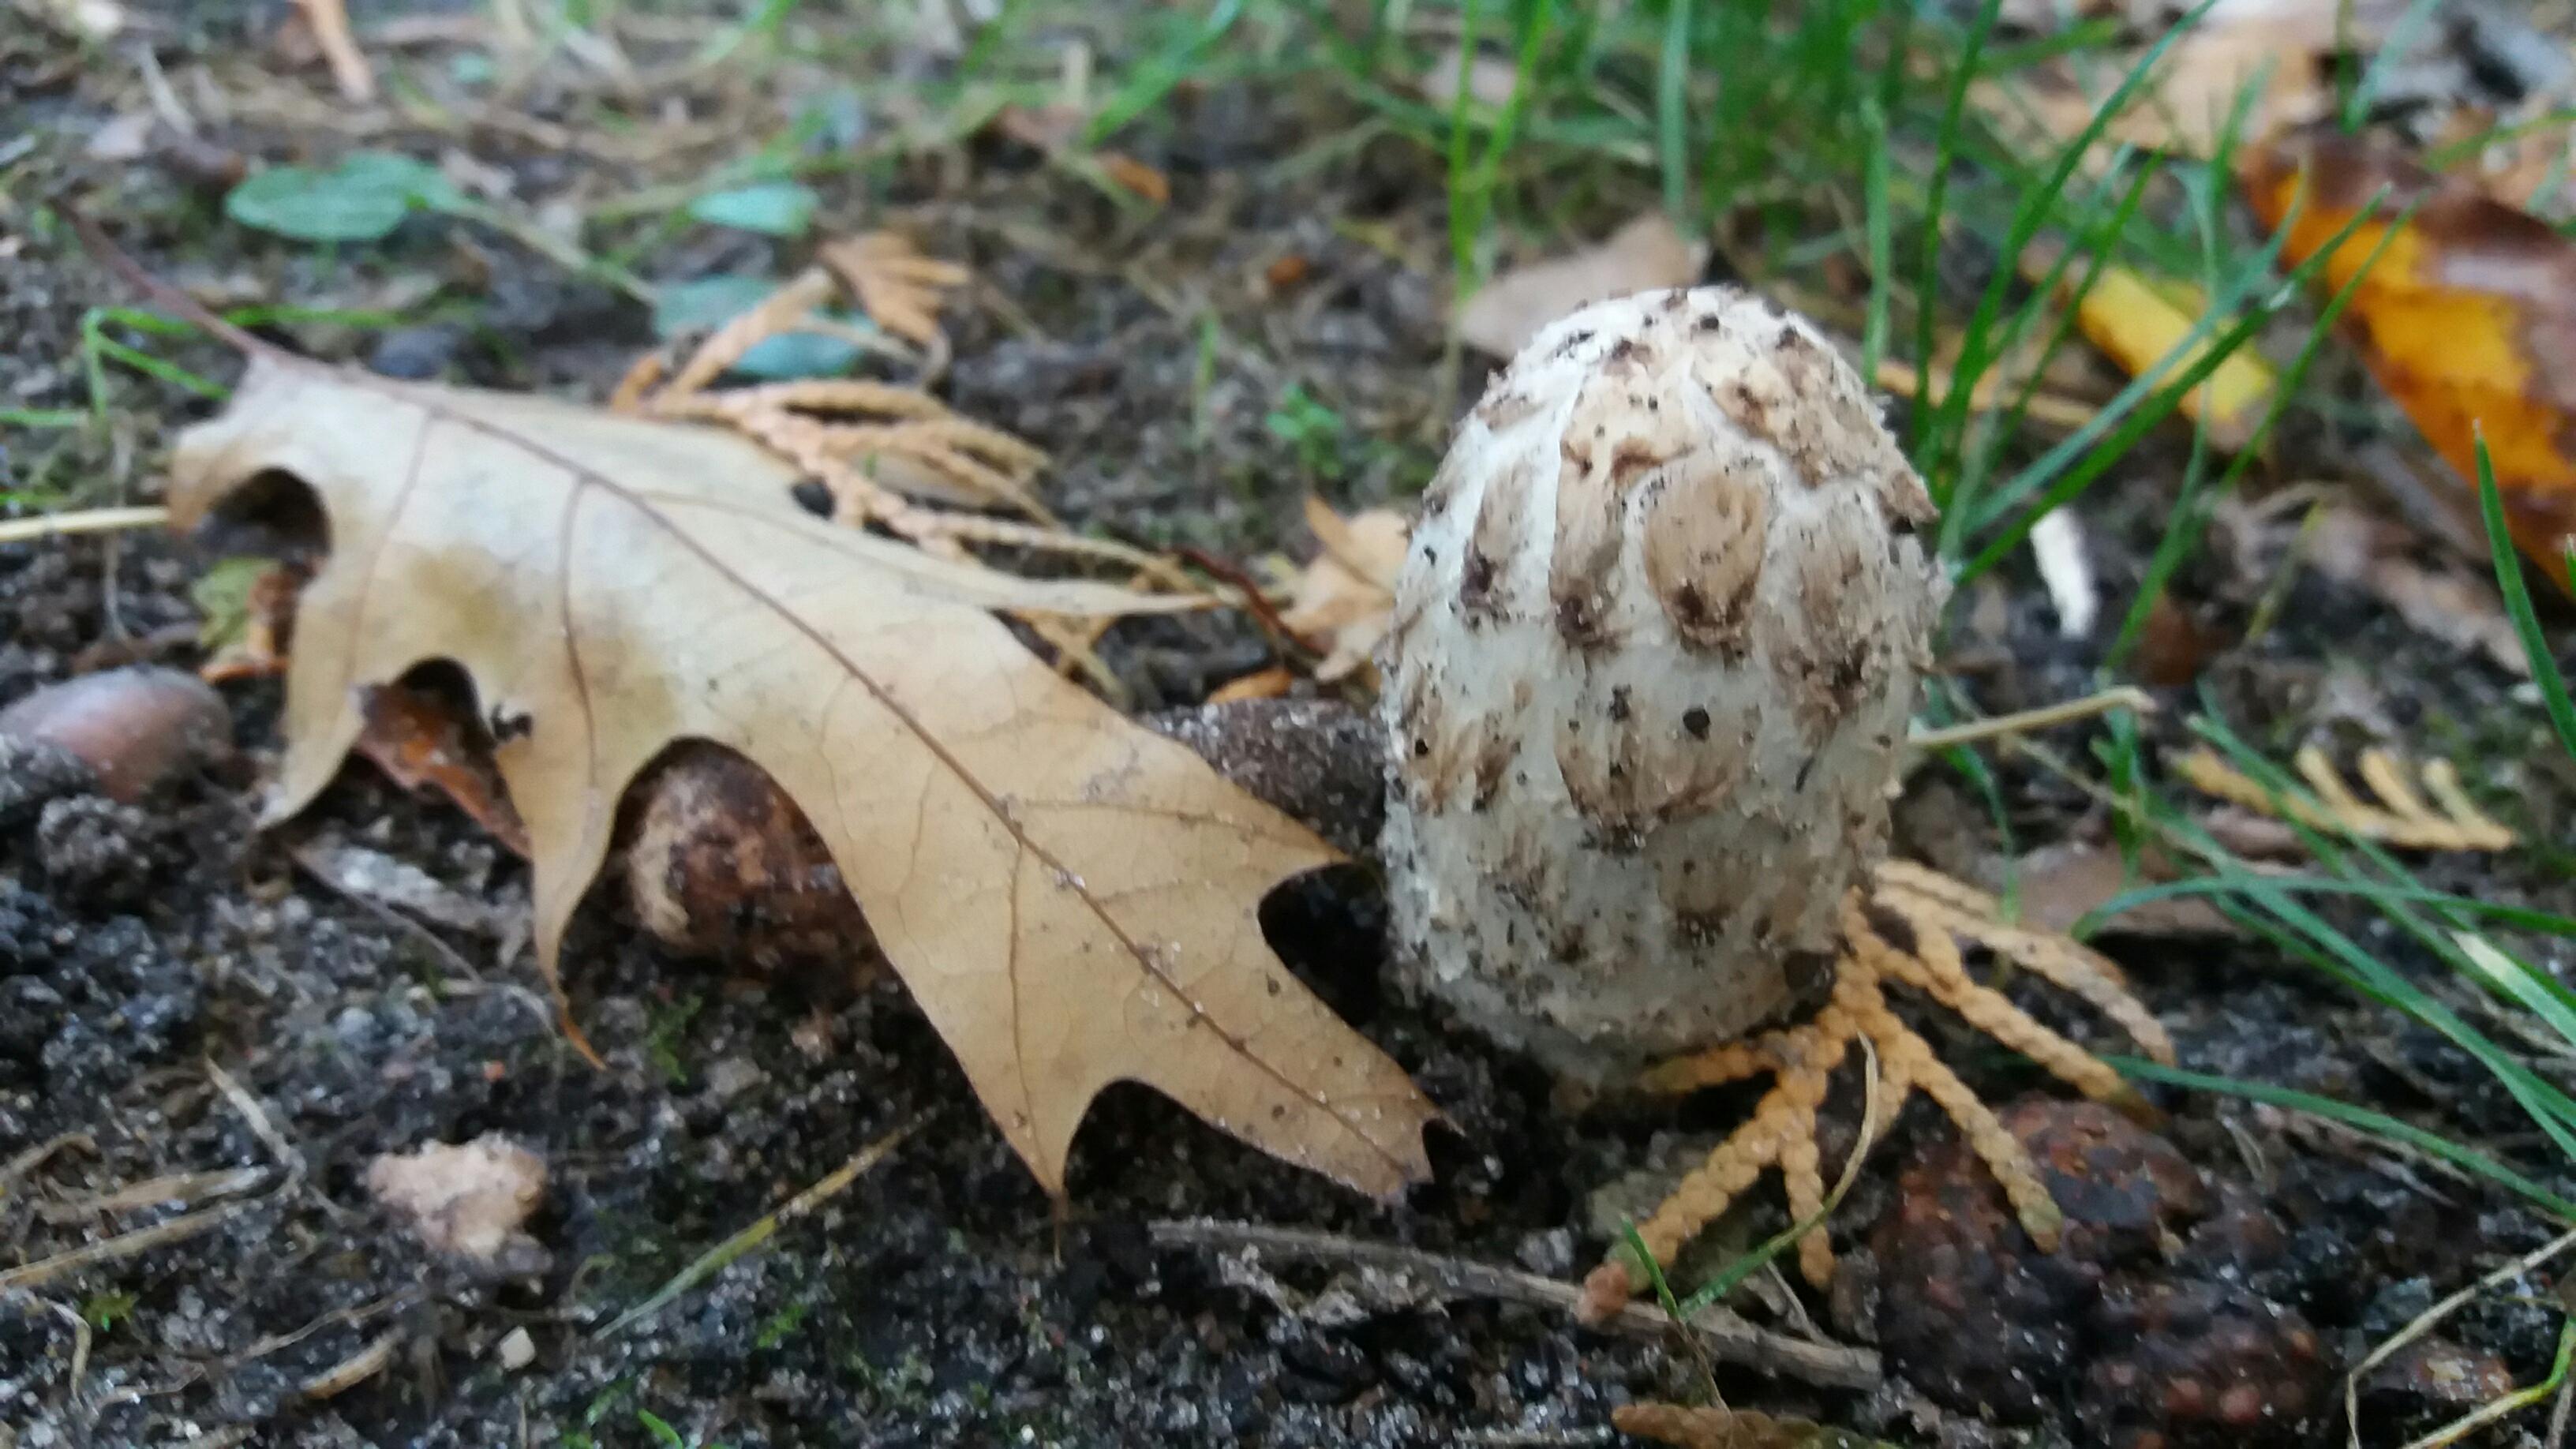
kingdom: Fungi
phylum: Basidiomycota
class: Agaricomycetes
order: Agaricales
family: Agaricaceae
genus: Coprinus
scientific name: Coprinus comatus
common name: stor parykhat
